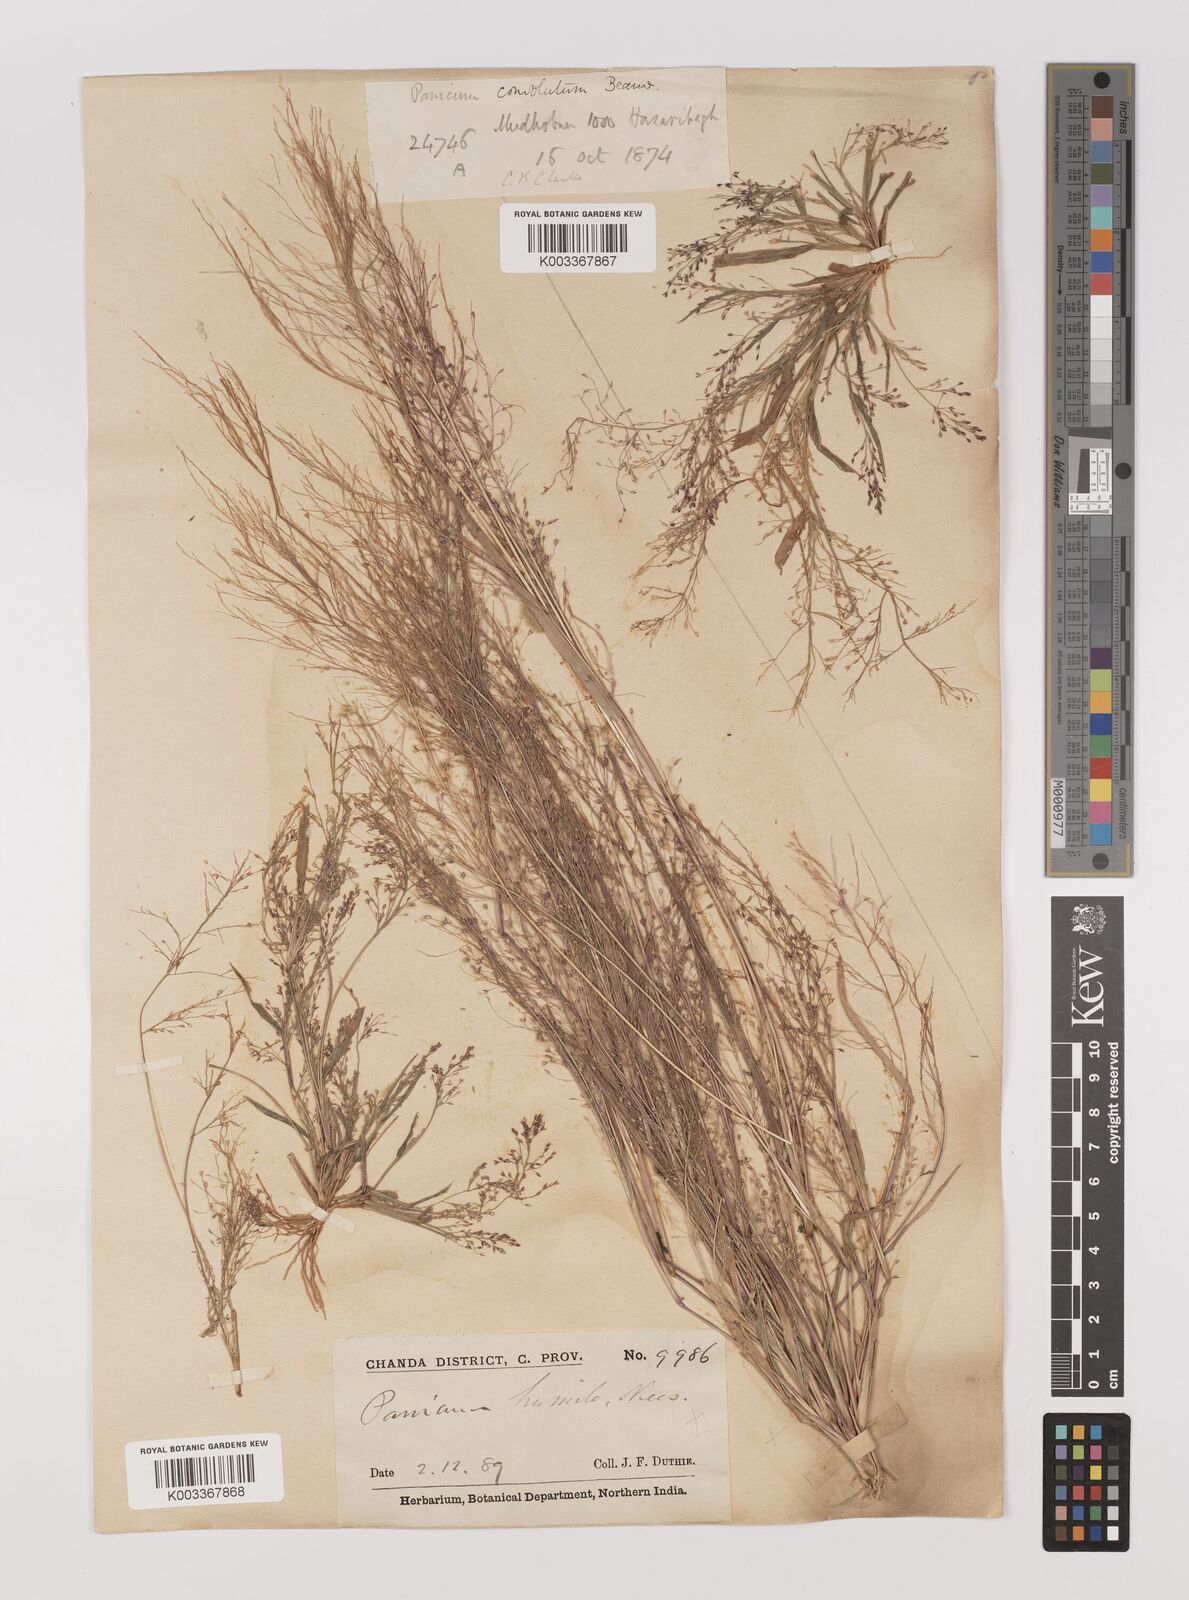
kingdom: Plantae
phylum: Tracheophyta
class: Liliopsida
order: Poales
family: Poaceae
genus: Panicum
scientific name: Panicum humile
